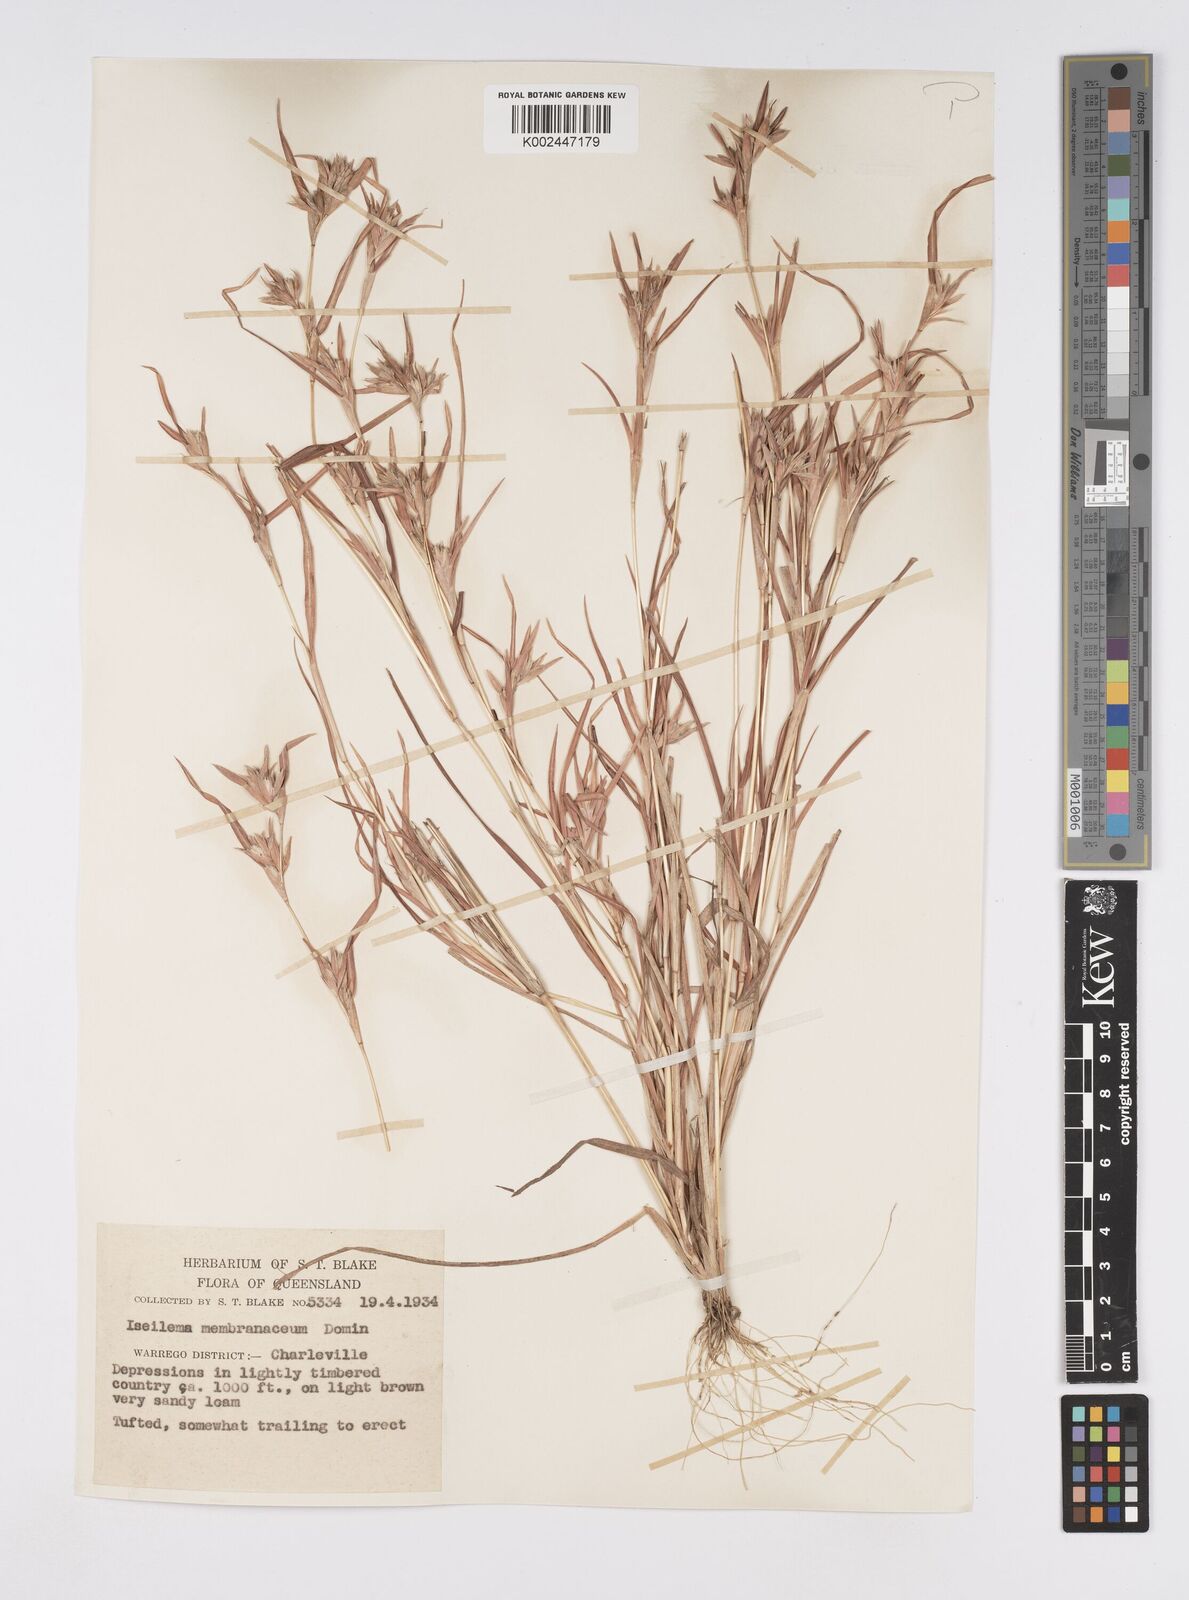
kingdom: Plantae
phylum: Tracheophyta
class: Liliopsida
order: Poales
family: Poaceae
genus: Iseilema
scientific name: Iseilema membranaceum
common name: Small flinders grass
